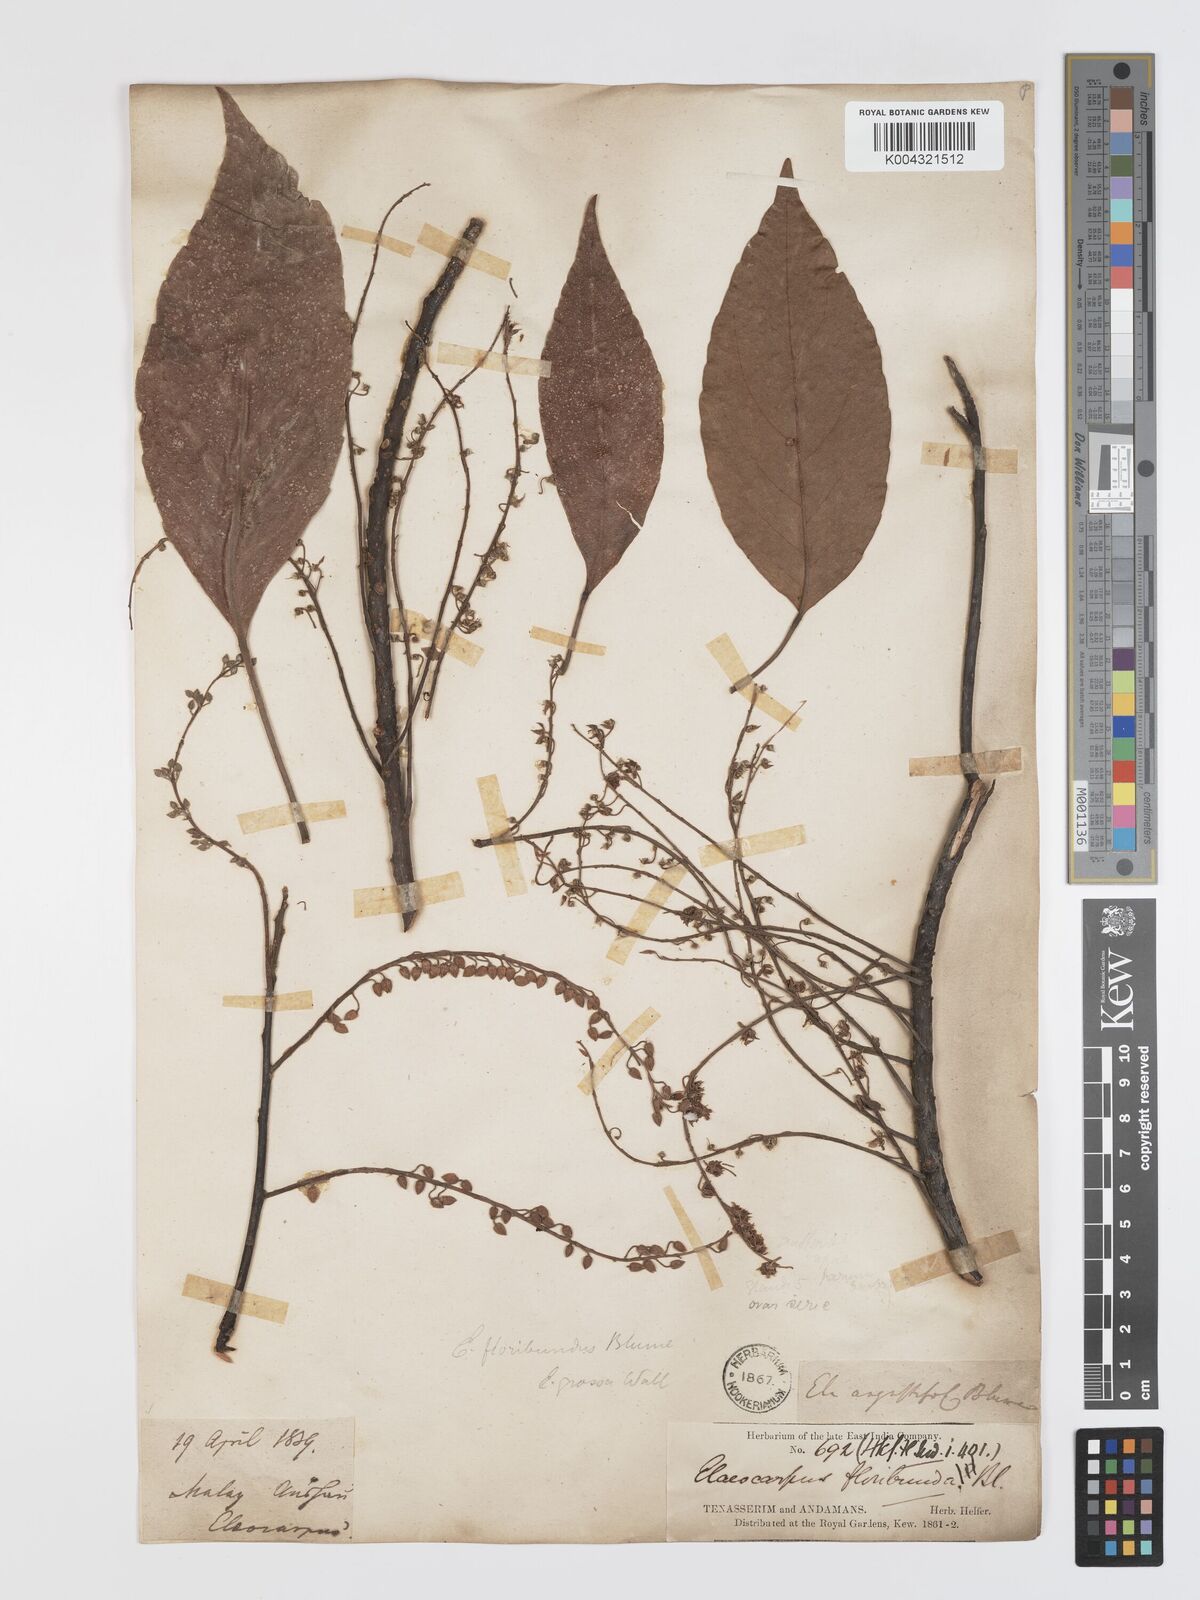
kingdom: Plantae
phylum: Tracheophyta
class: Magnoliopsida
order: Oxalidales
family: Elaeocarpaceae
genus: Elaeocarpus
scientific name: Elaeocarpus floribundus
